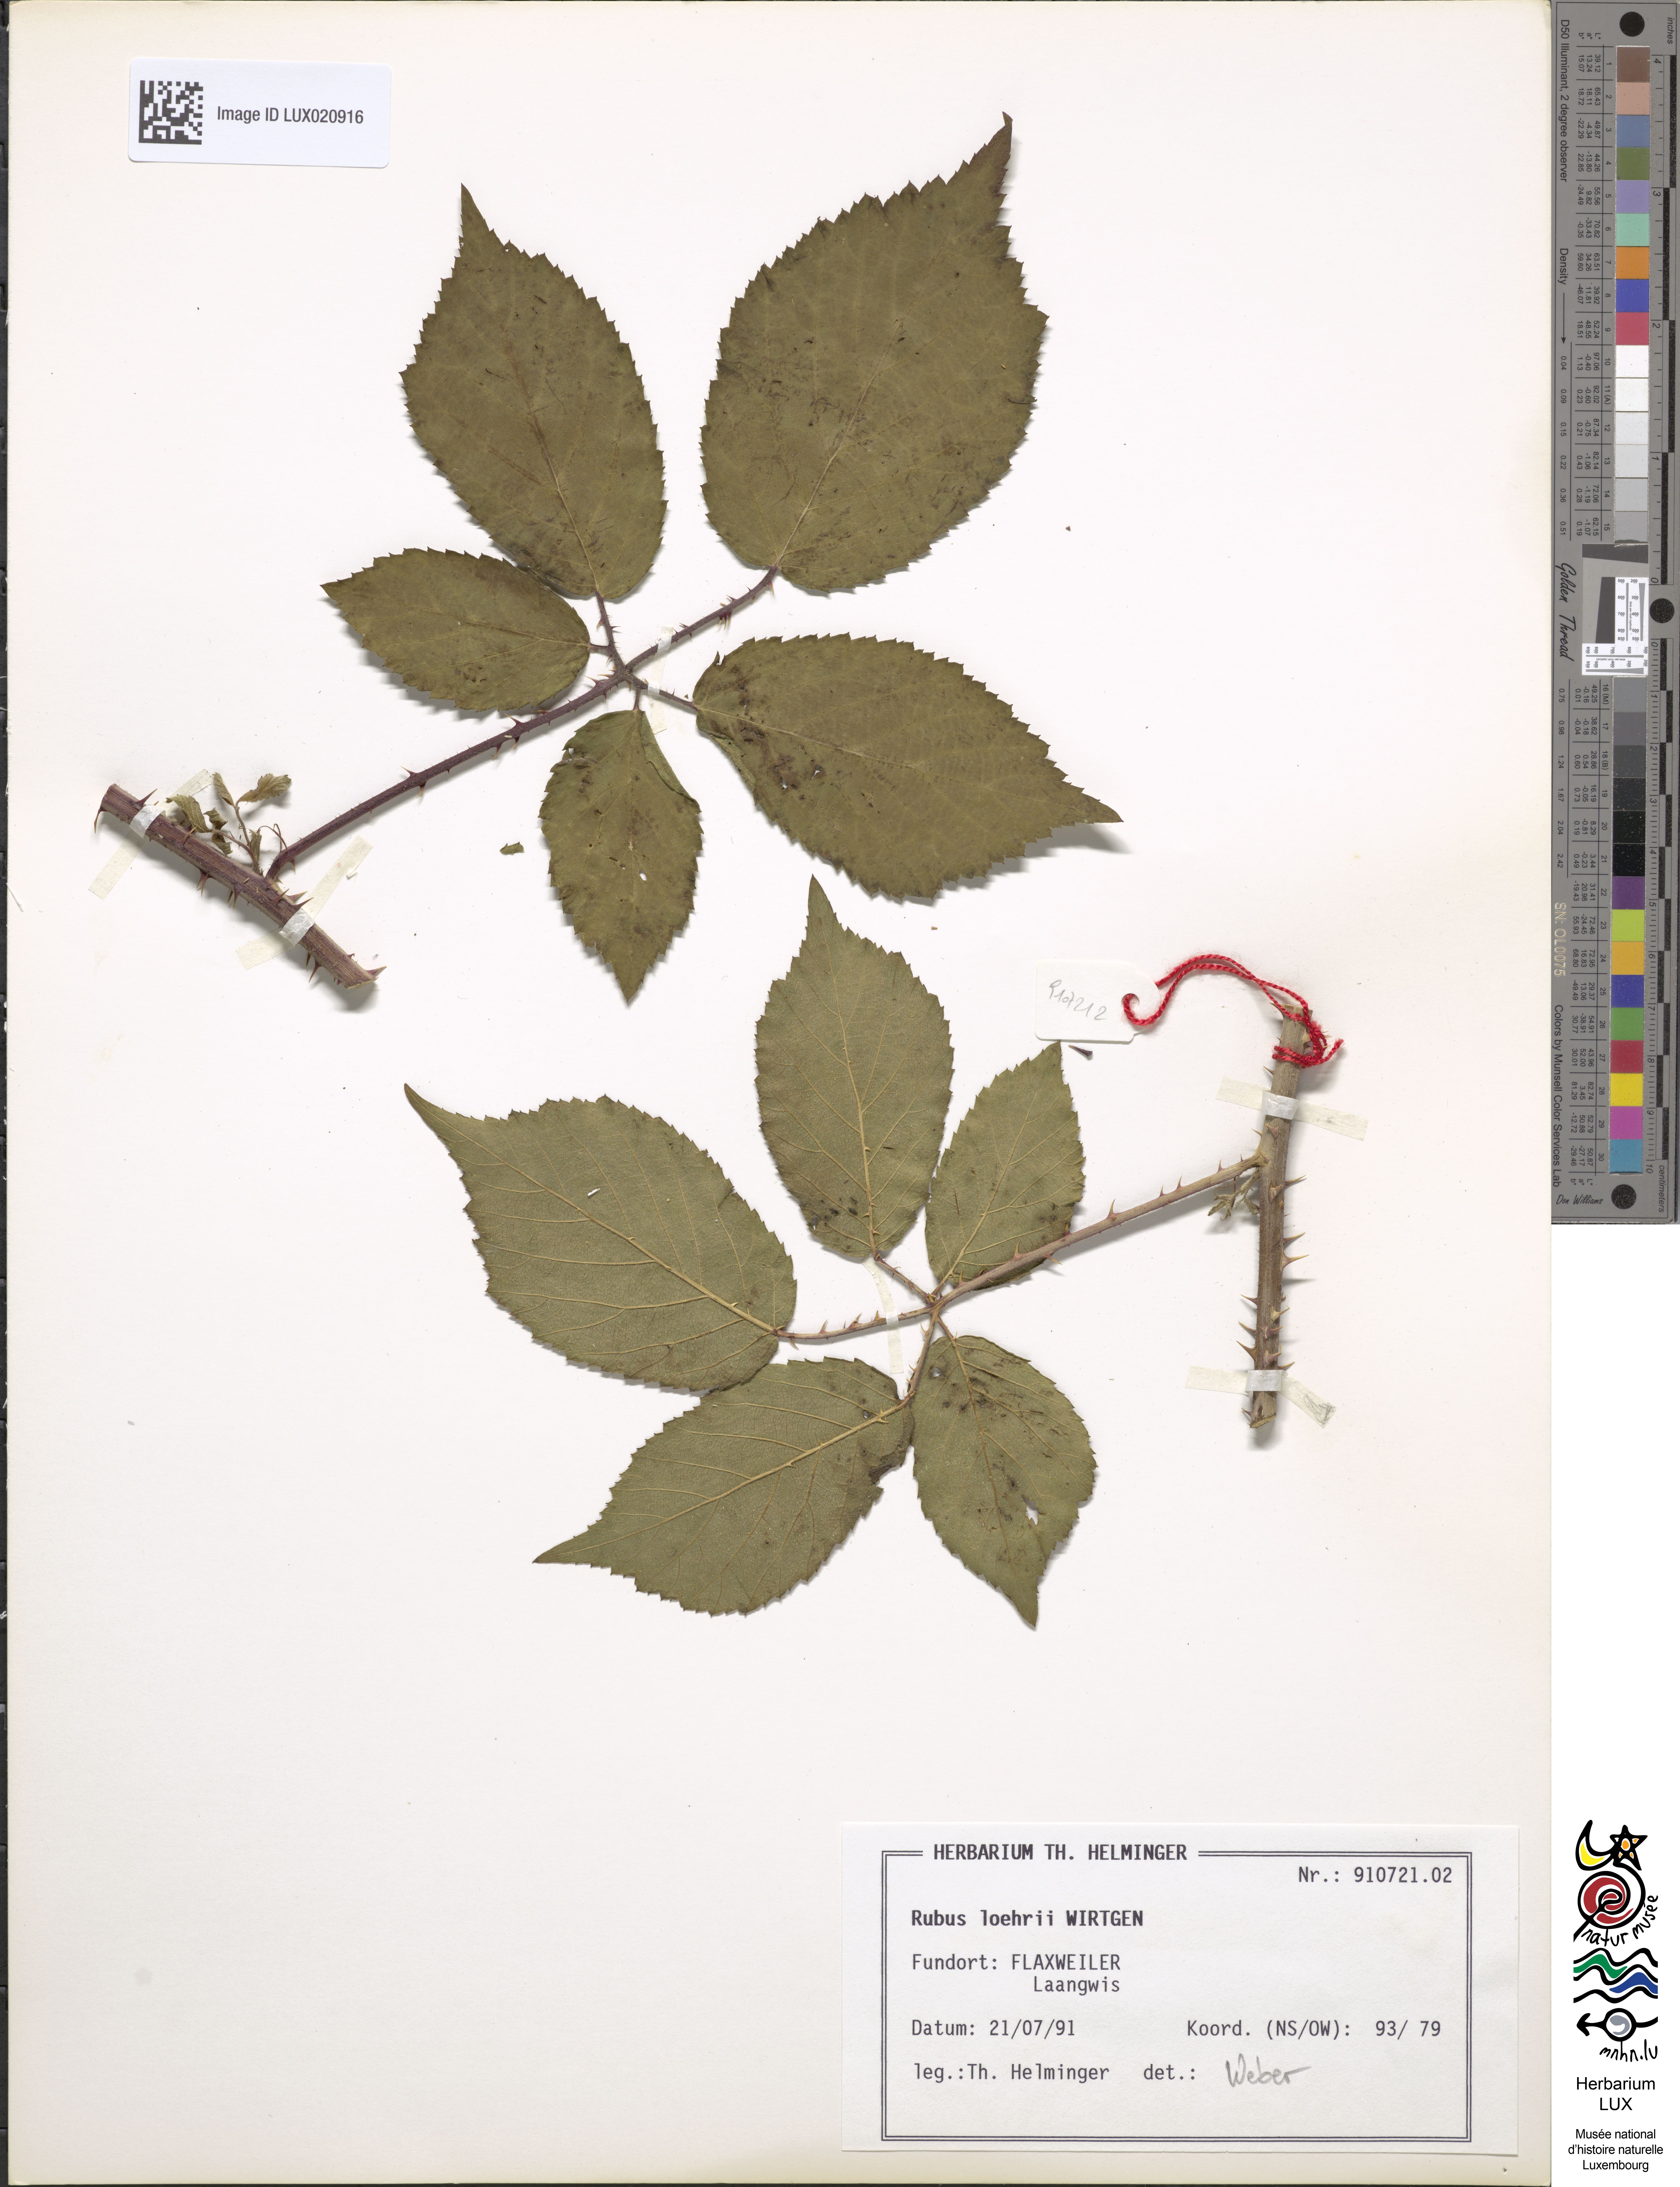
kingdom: Plantae
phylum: Tracheophyta
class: Magnoliopsida
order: Rosales
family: Rosaceae
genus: Rubus
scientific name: Rubus loehrii
